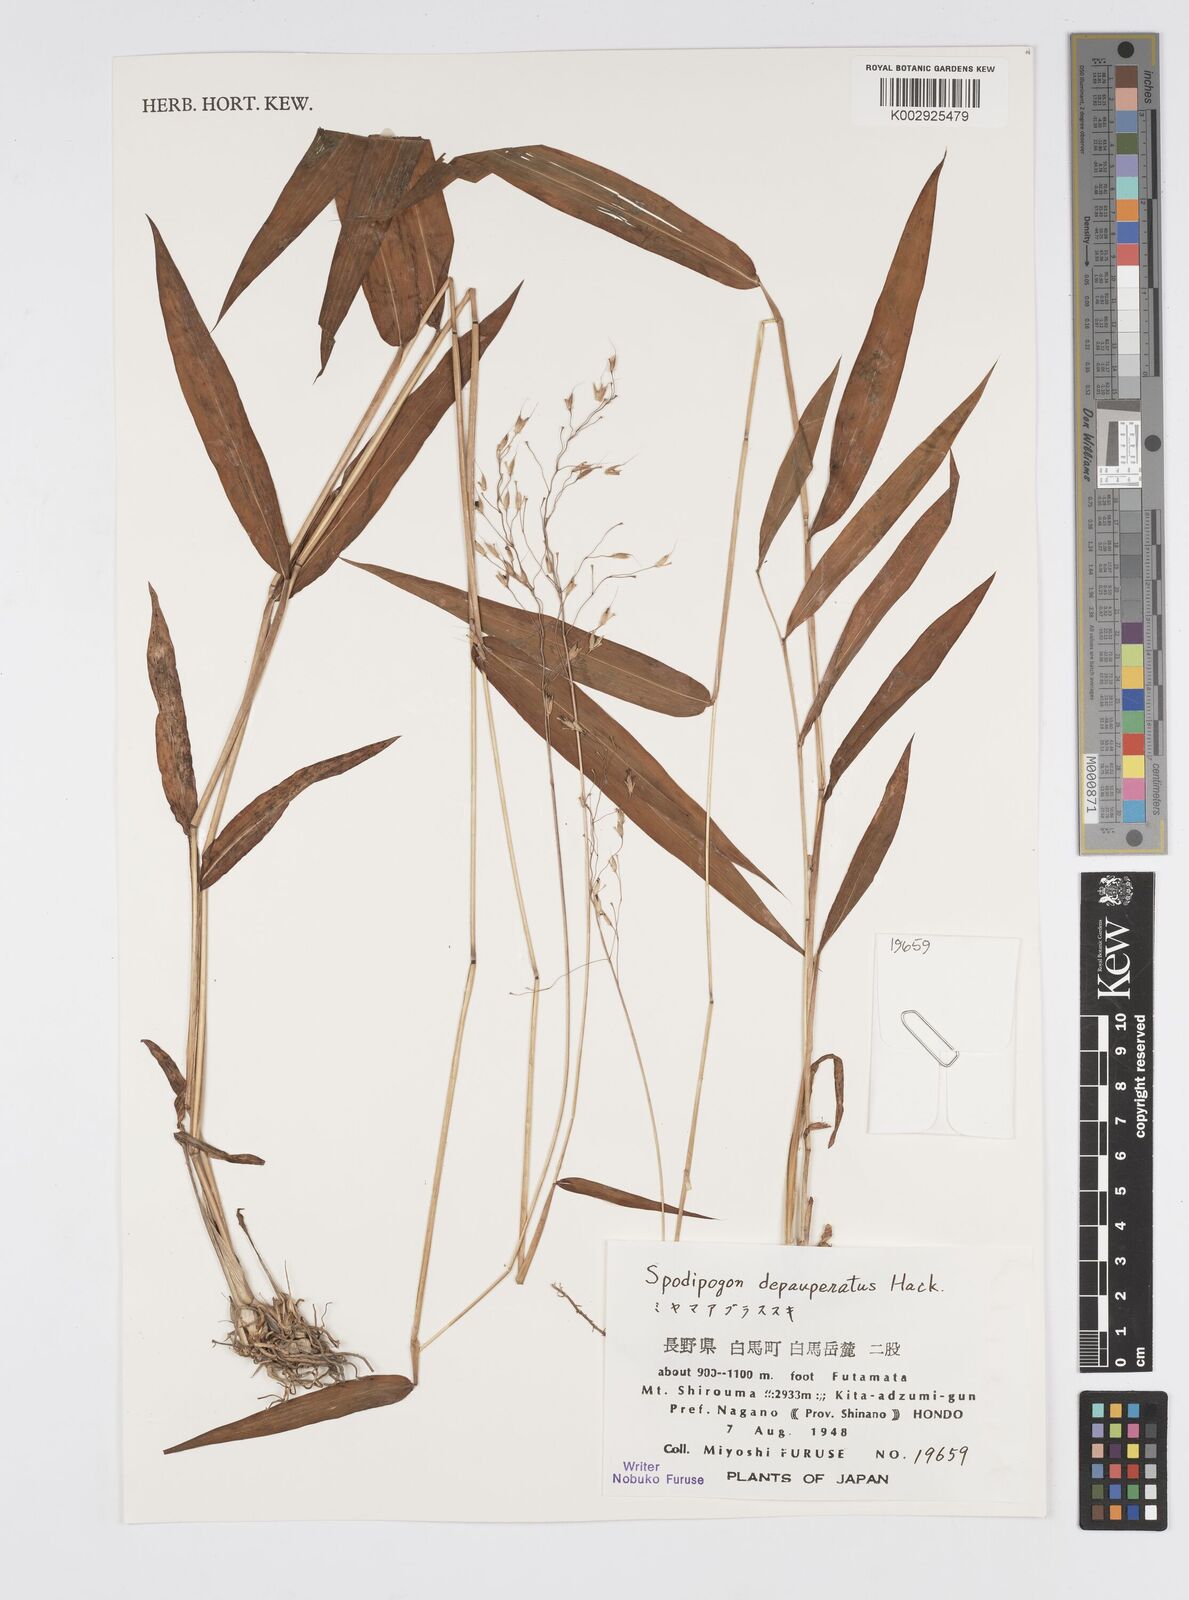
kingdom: Plantae
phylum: Tracheophyta
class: Liliopsida
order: Poales
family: Poaceae
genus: Spodiopogon
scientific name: Spodiopogon depauperatus
